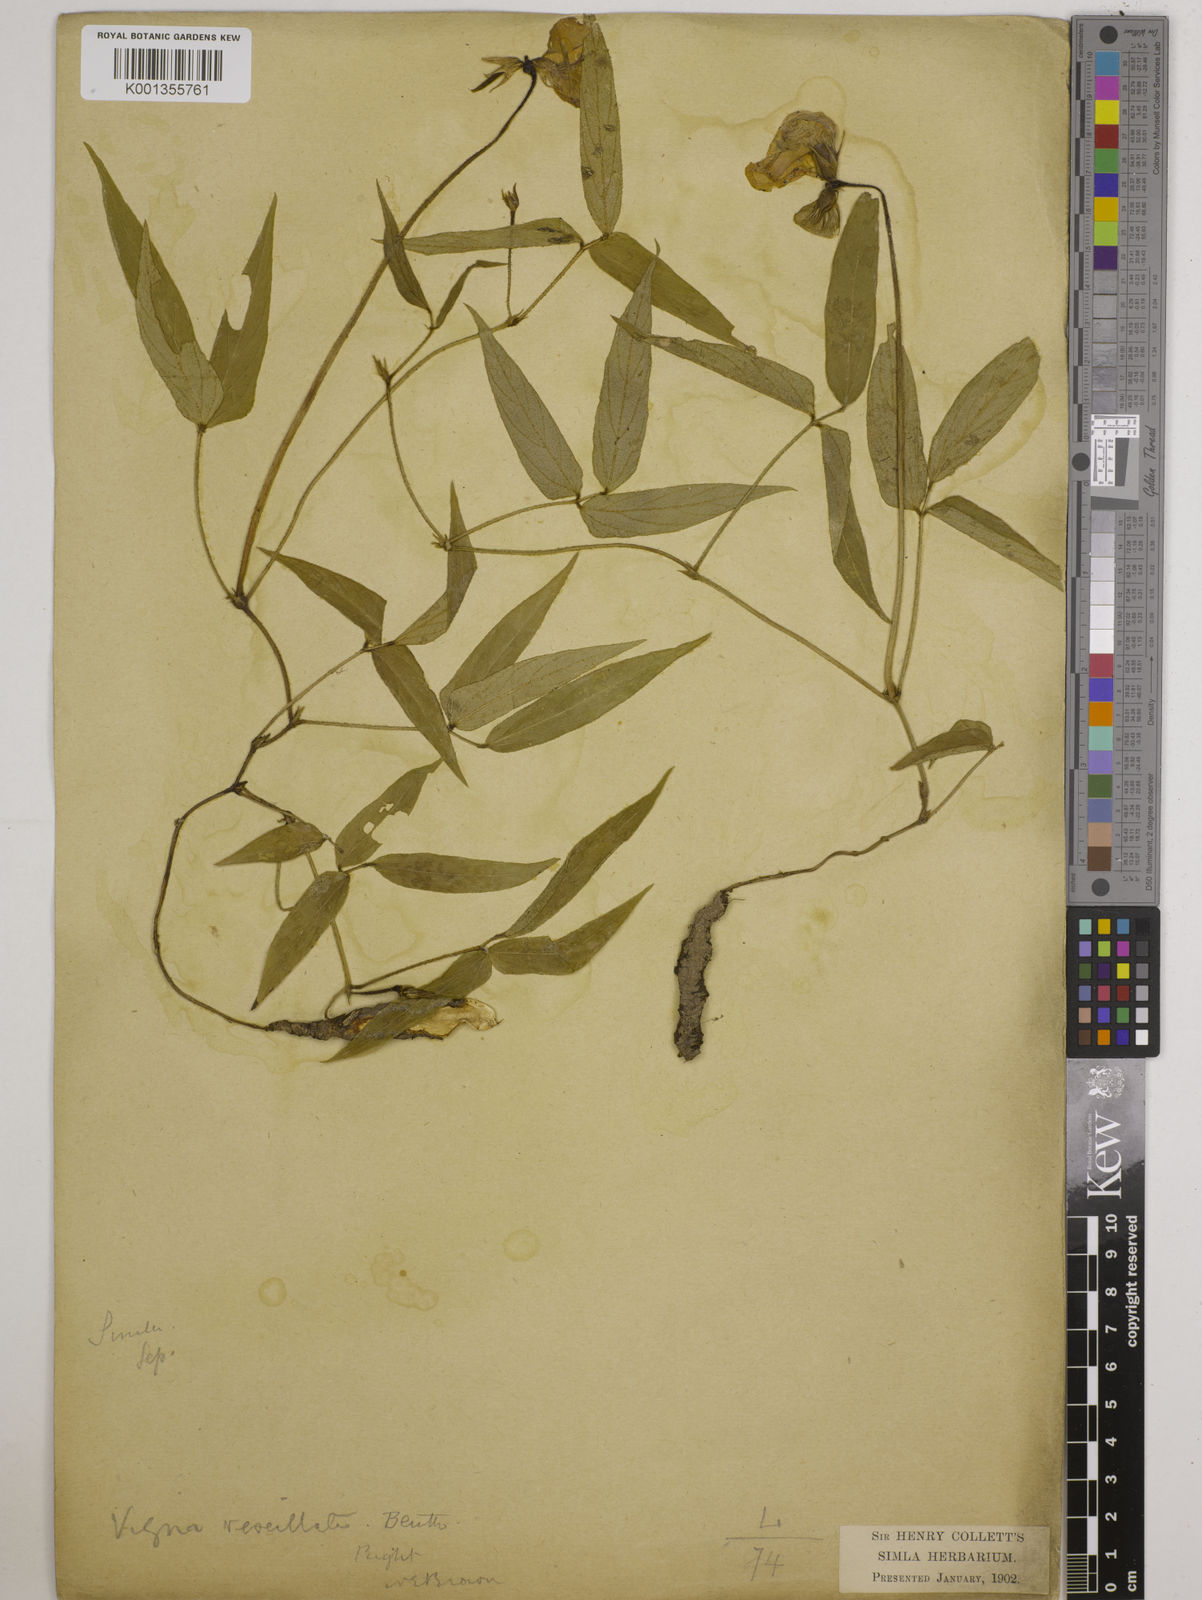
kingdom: Plantae
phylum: Tracheophyta
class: Magnoliopsida
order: Fabales
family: Fabaceae
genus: Vigna
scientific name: Vigna vexillata
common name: Zombi pea
